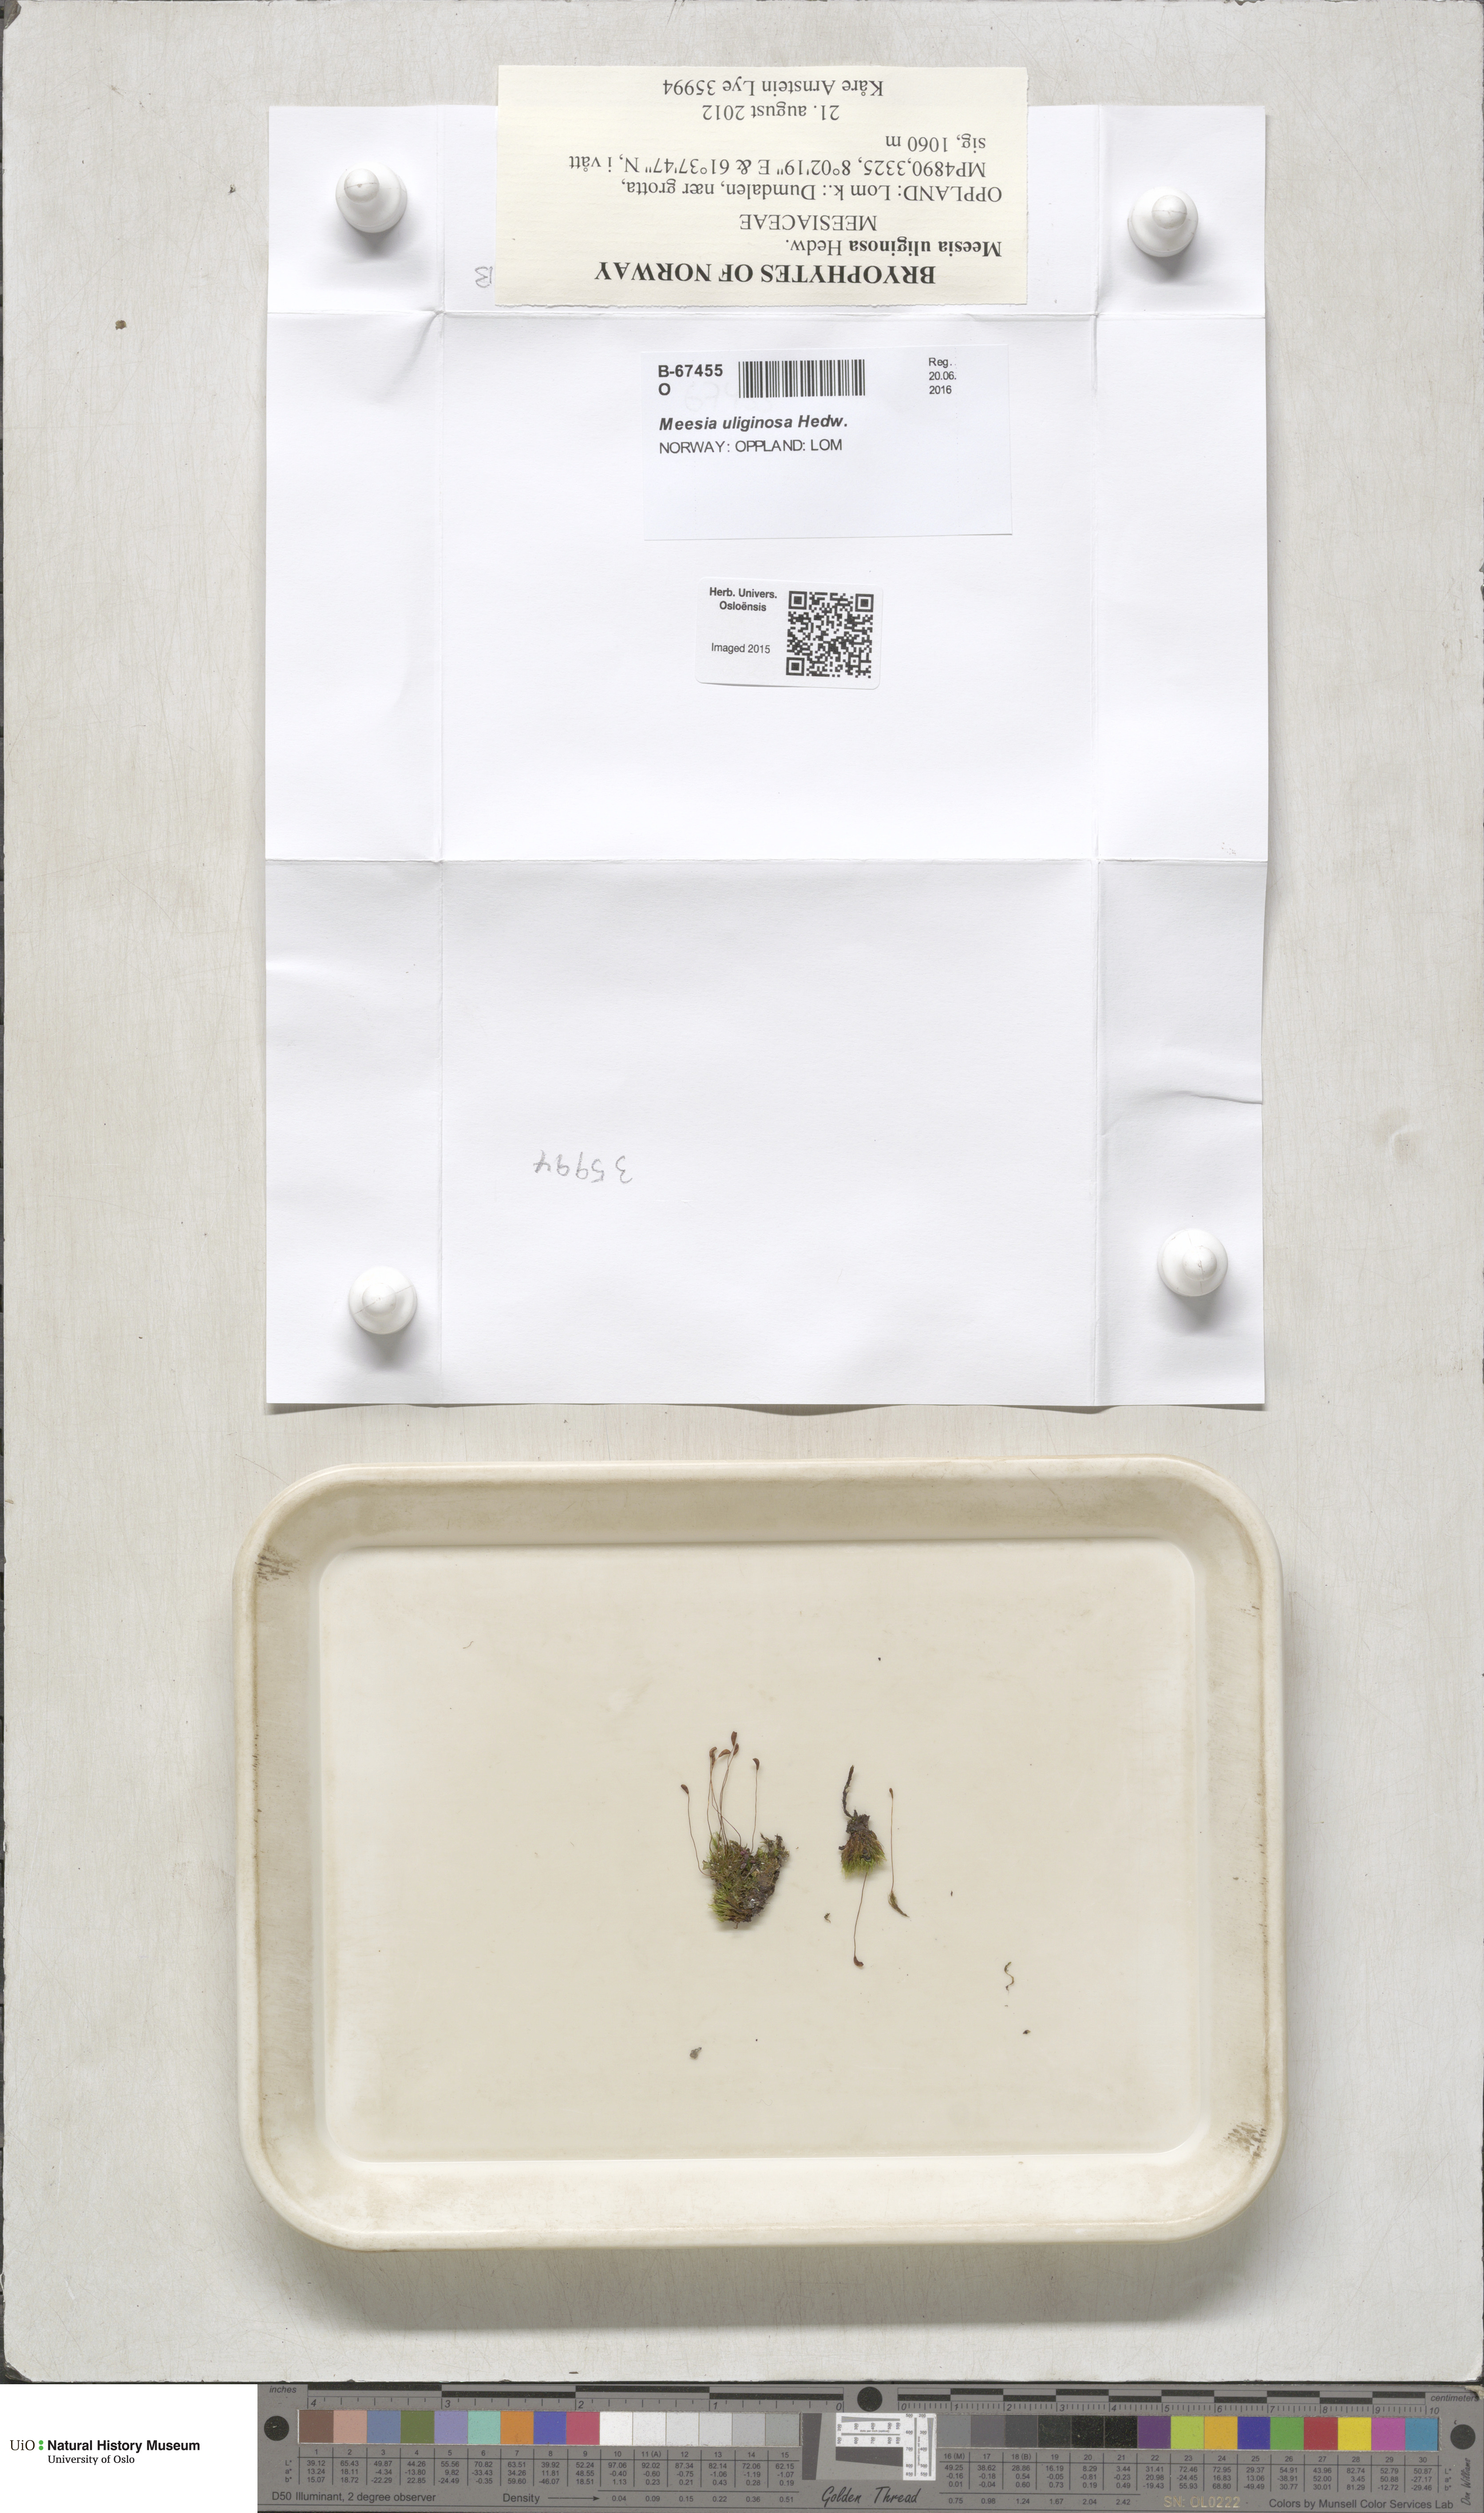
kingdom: Plantae
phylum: Bryophyta
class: Bryopsida
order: Splachnales
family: Meesiaceae
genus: Meesia
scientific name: Meesia uliginosa
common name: Capillary thread moss
